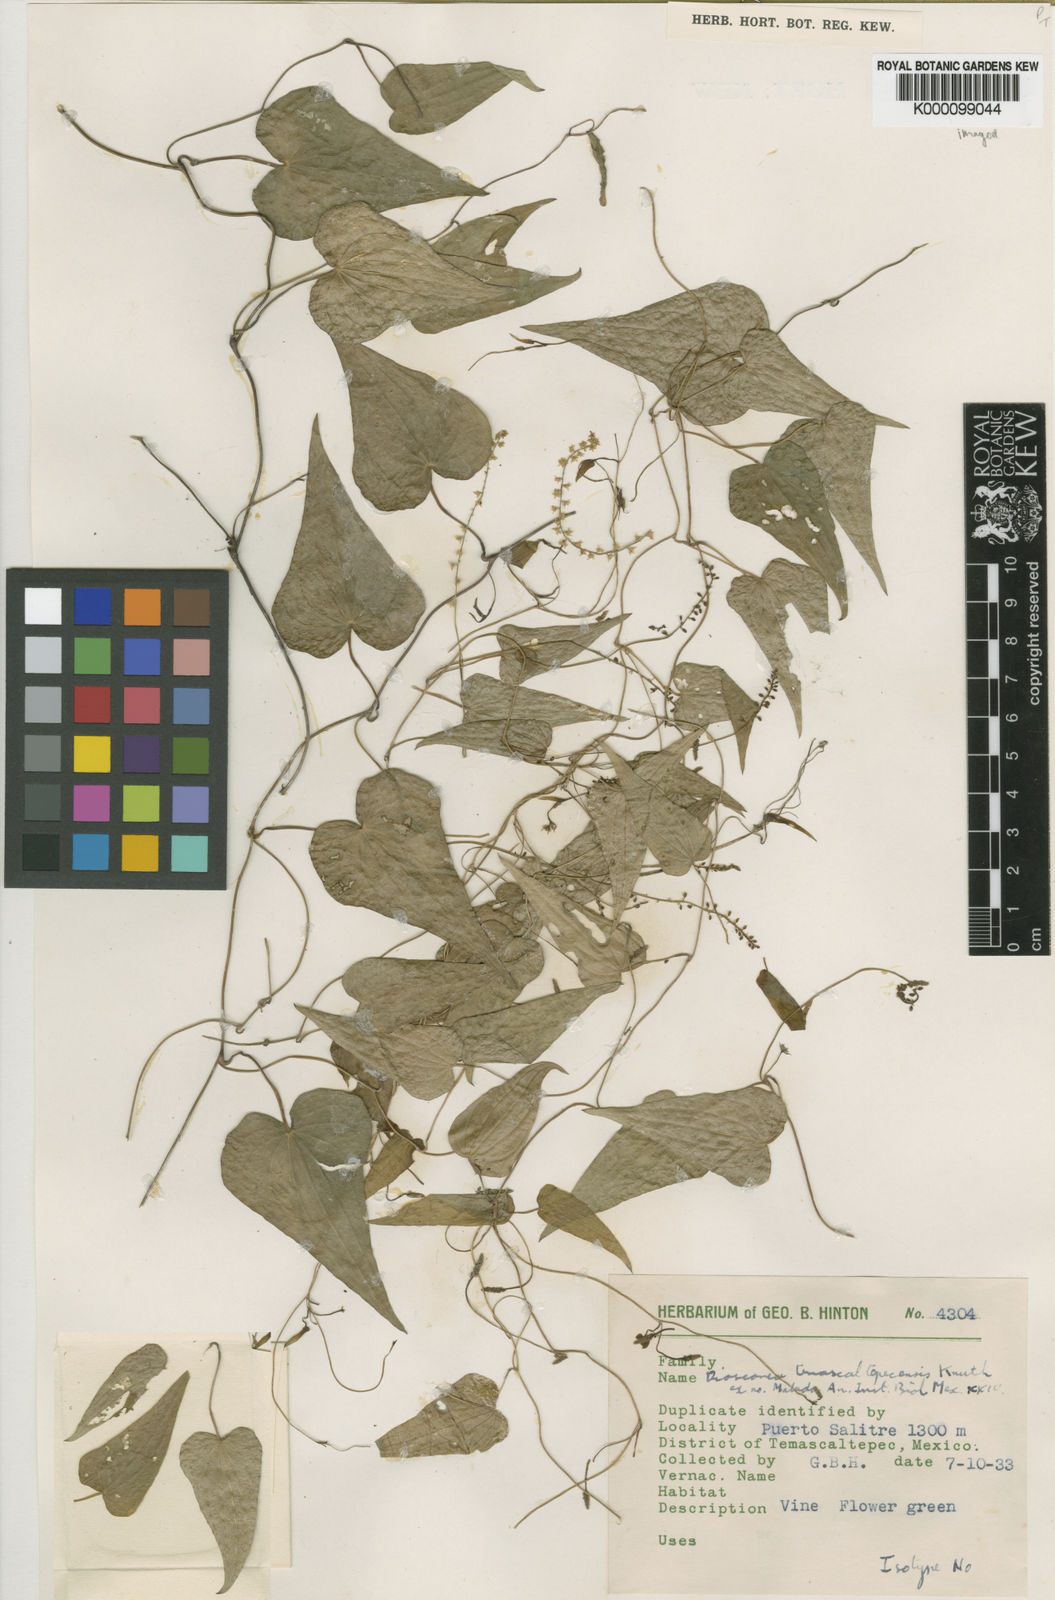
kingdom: Plantae
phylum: Tracheophyta
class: Liliopsida
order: Dioscoreales
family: Dioscoreaceae
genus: Dioscorea
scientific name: Dioscorea temascaltepecensis
